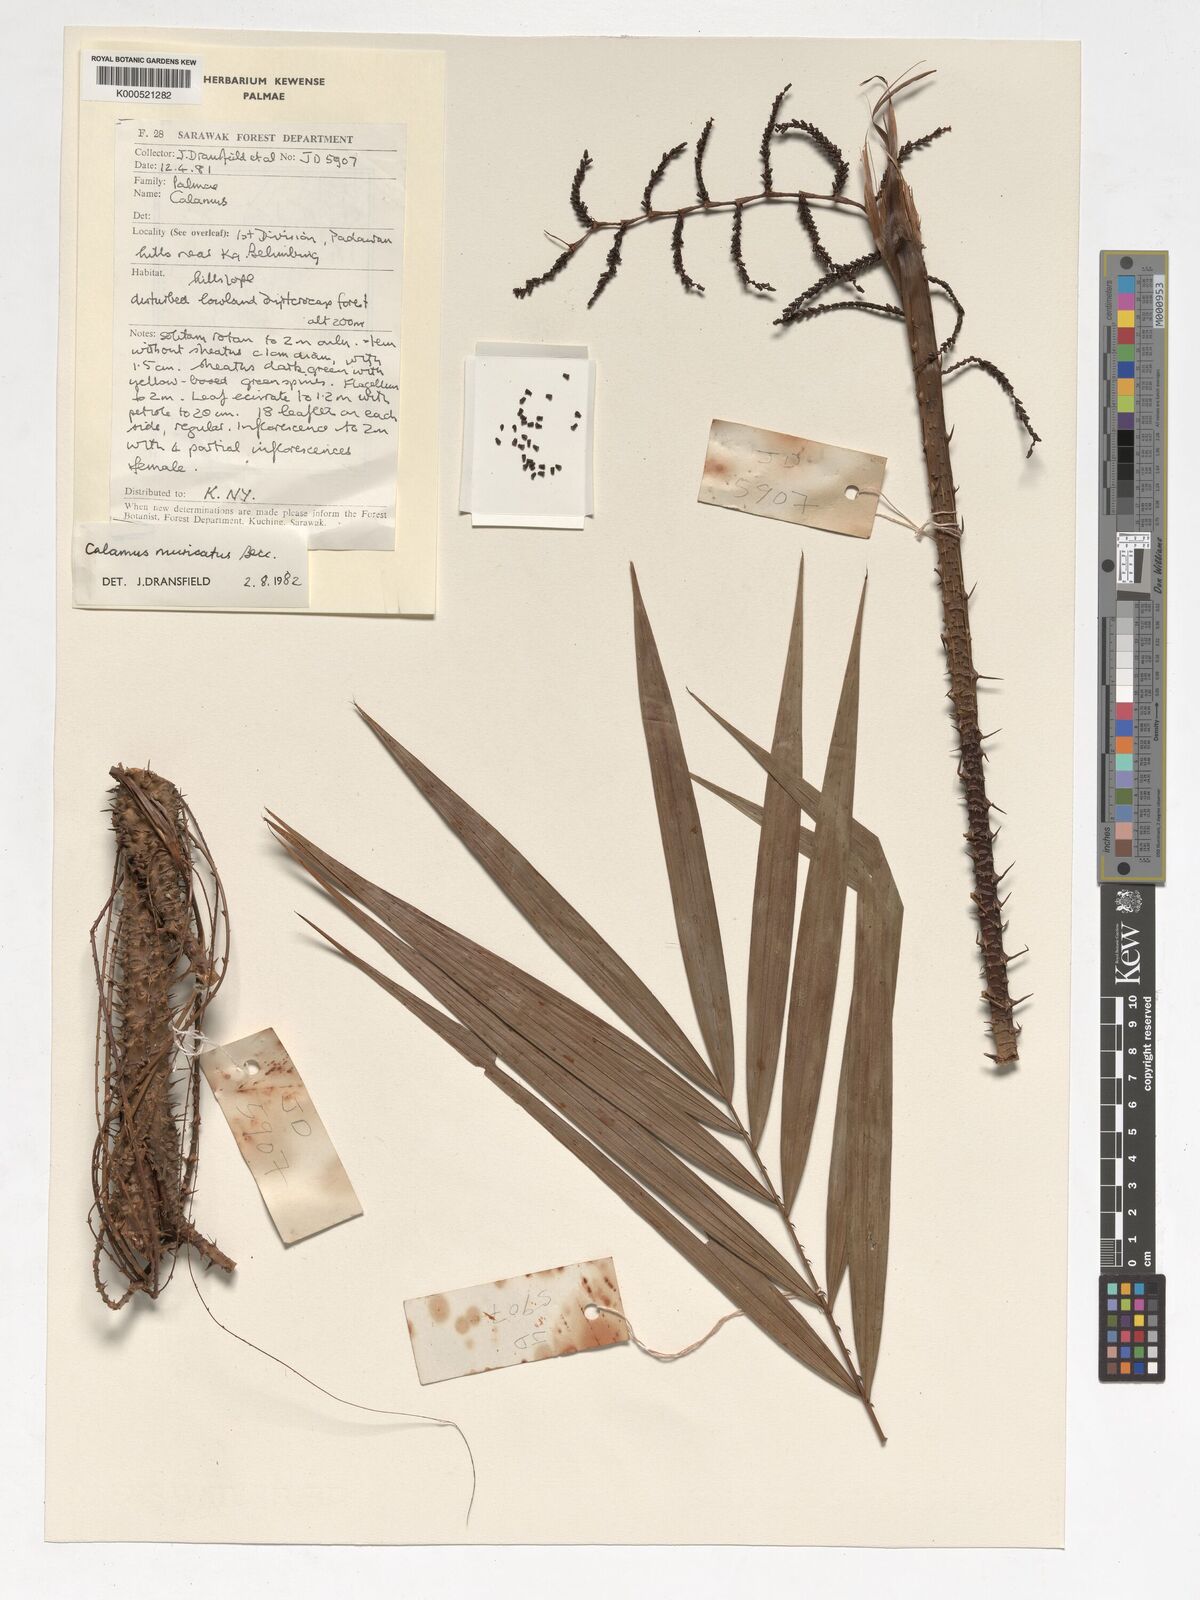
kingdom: Plantae
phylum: Tracheophyta
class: Liliopsida
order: Arecales
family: Arecaceae
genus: Calamus
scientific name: Calamus muricatus
